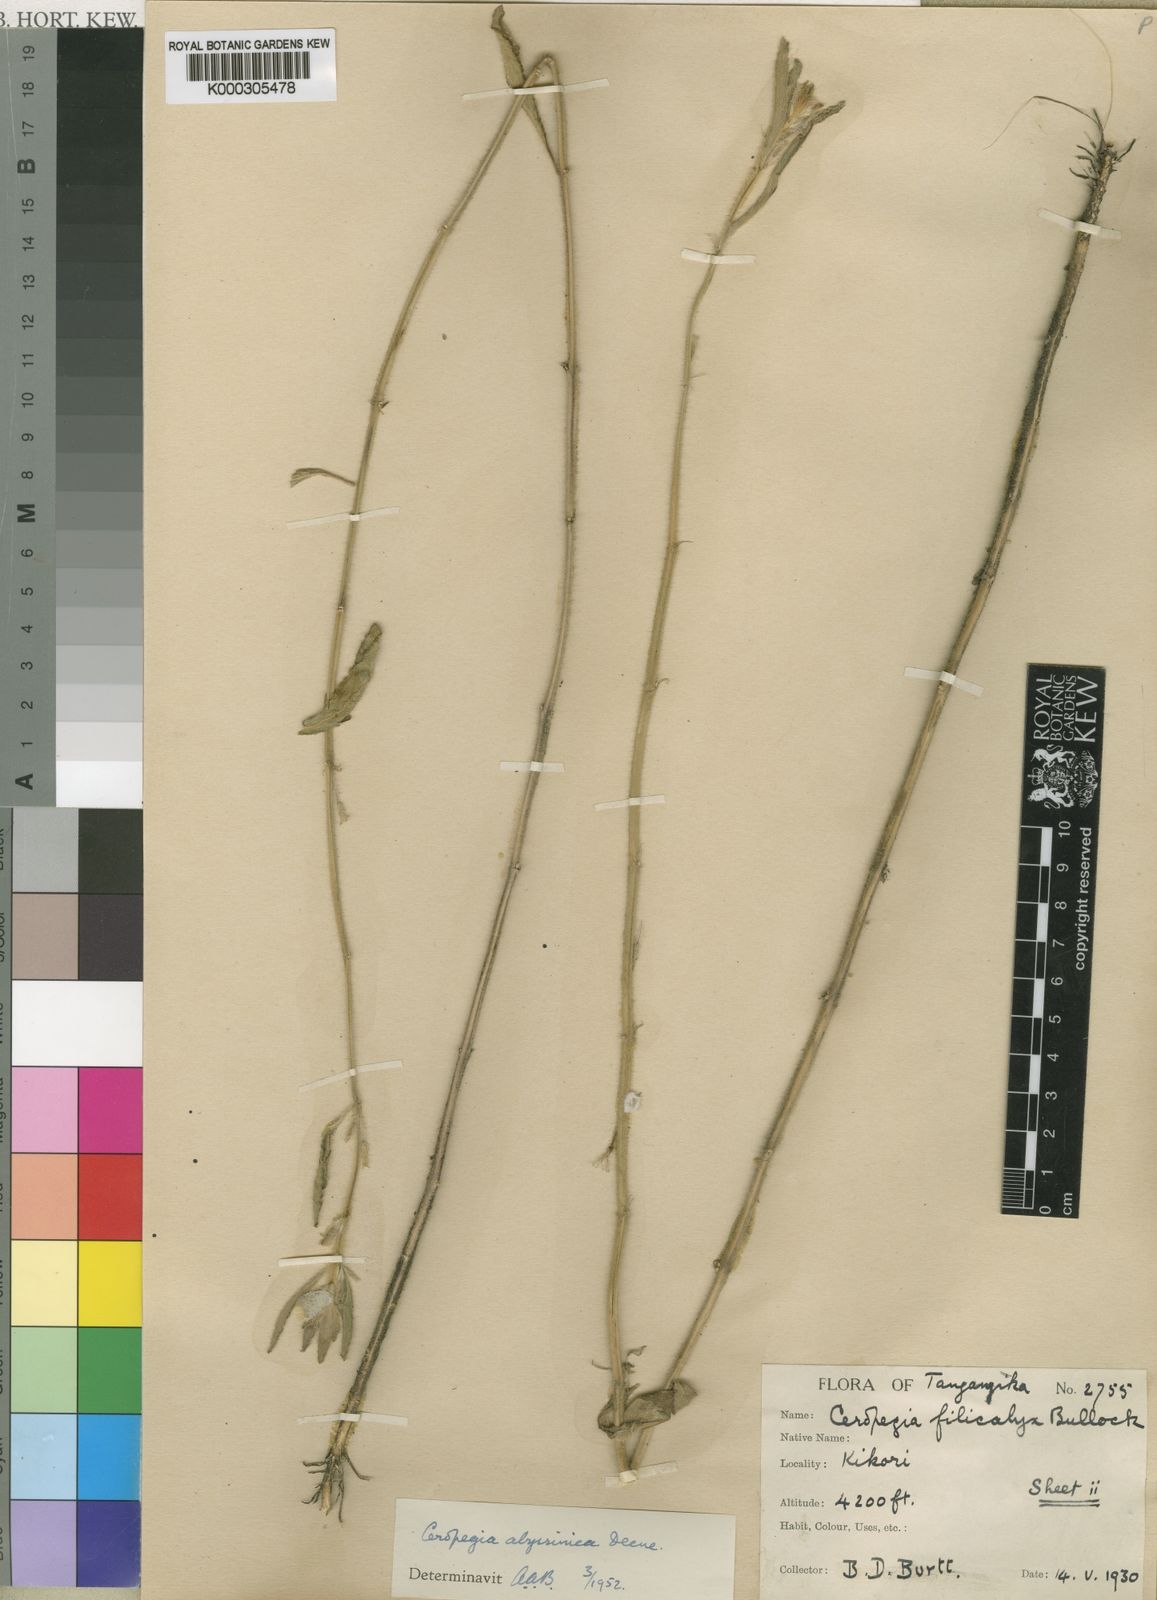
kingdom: Plantae
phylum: Tracheophyta
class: Magnoliopsida
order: Gentianales
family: Apocynaceae
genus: Ceropegia
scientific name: Ceropegia abyssinica
